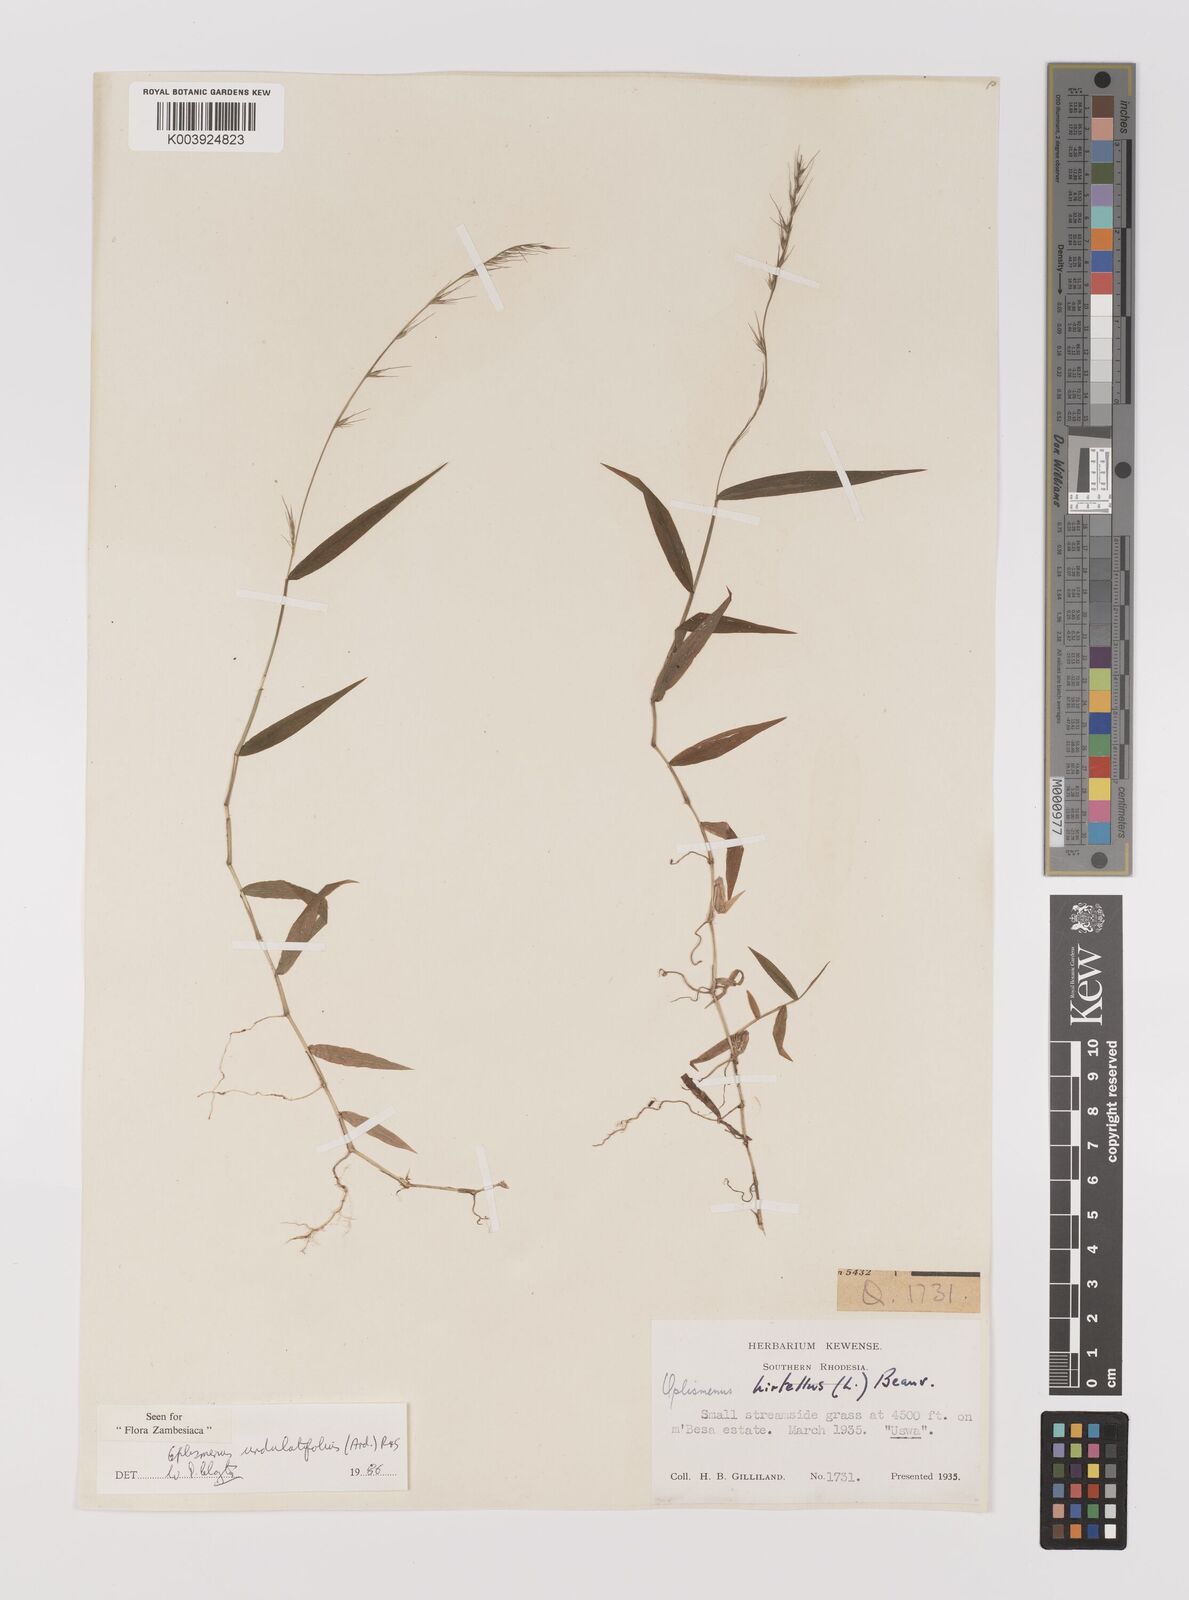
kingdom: Plantae
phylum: Tracheophyta
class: Liliopsida
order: Poales
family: Poaceae
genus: Oplismenus
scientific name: Oplismenus undulatifolius
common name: Wavyleaf basketgrass
